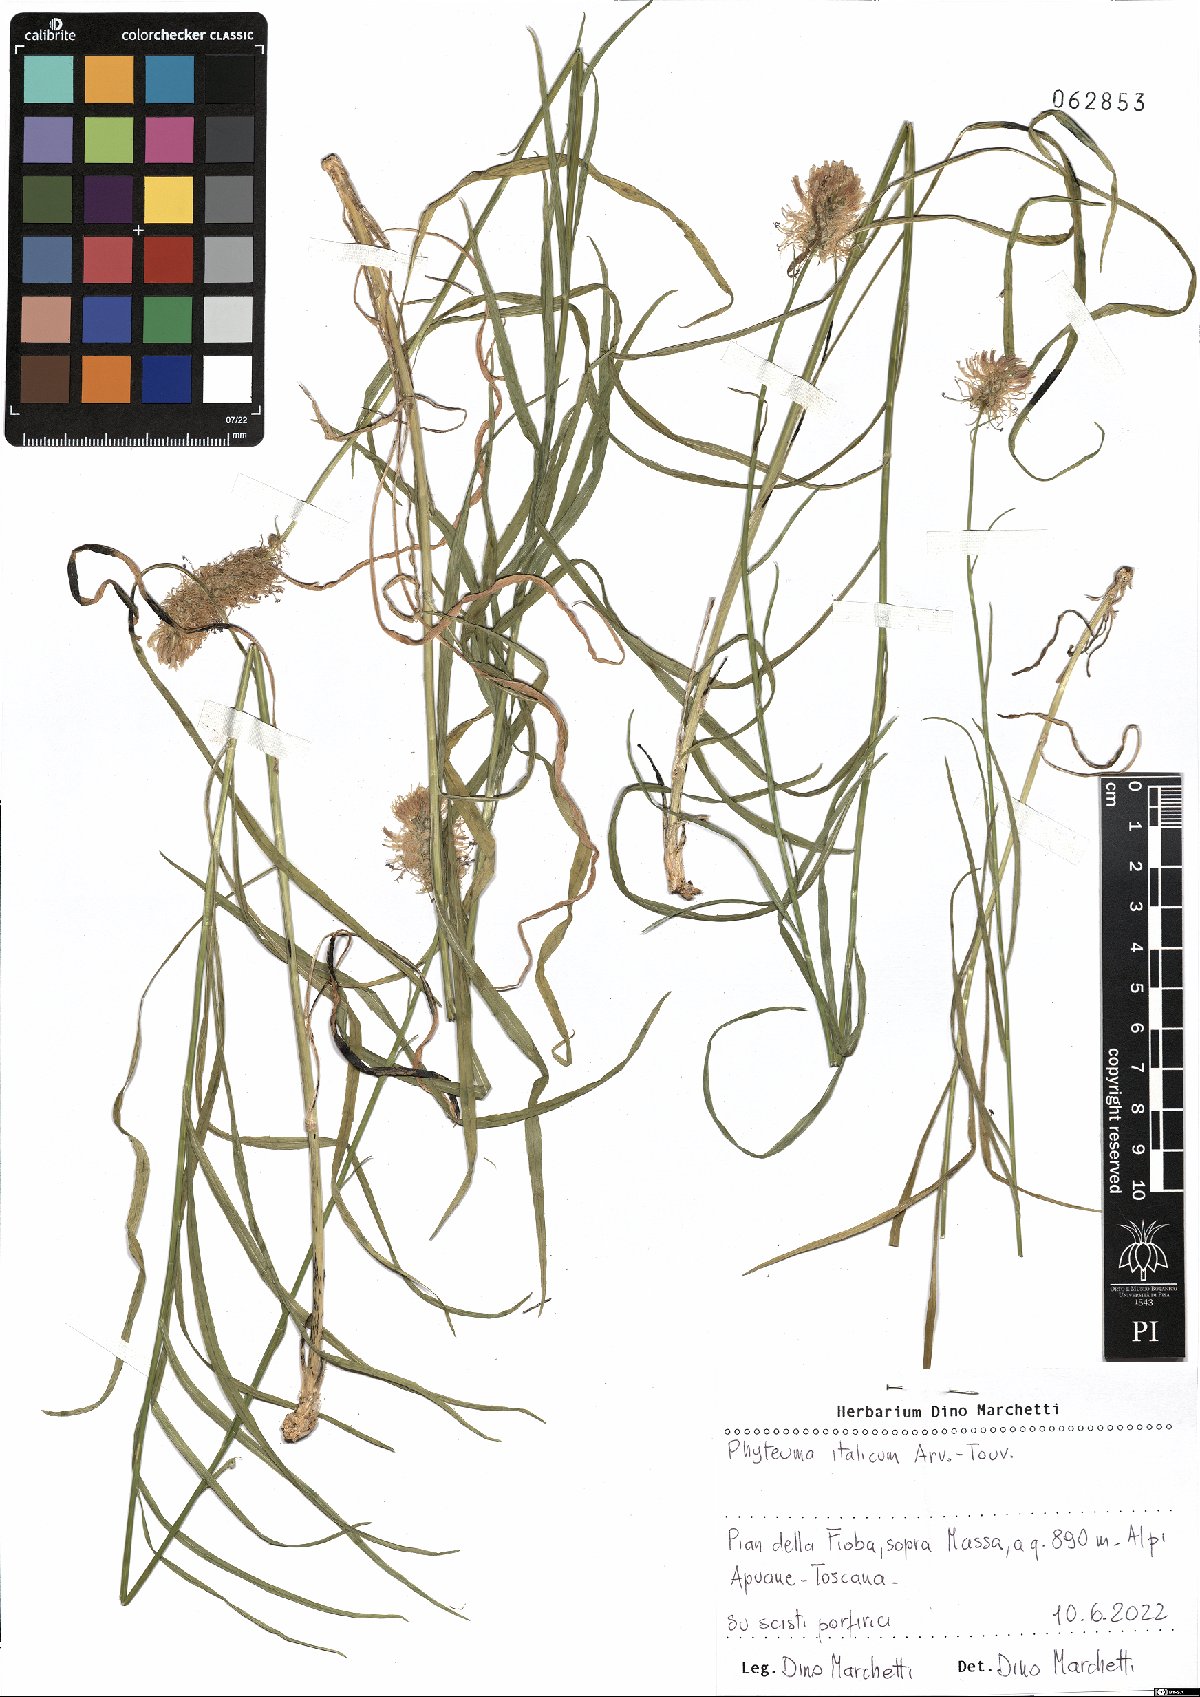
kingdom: Plantae
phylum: Tracheophyta
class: Magnoliopsida
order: Asterales
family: Campanulaceae
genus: Phyteuma
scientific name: Phyteuma italicum
